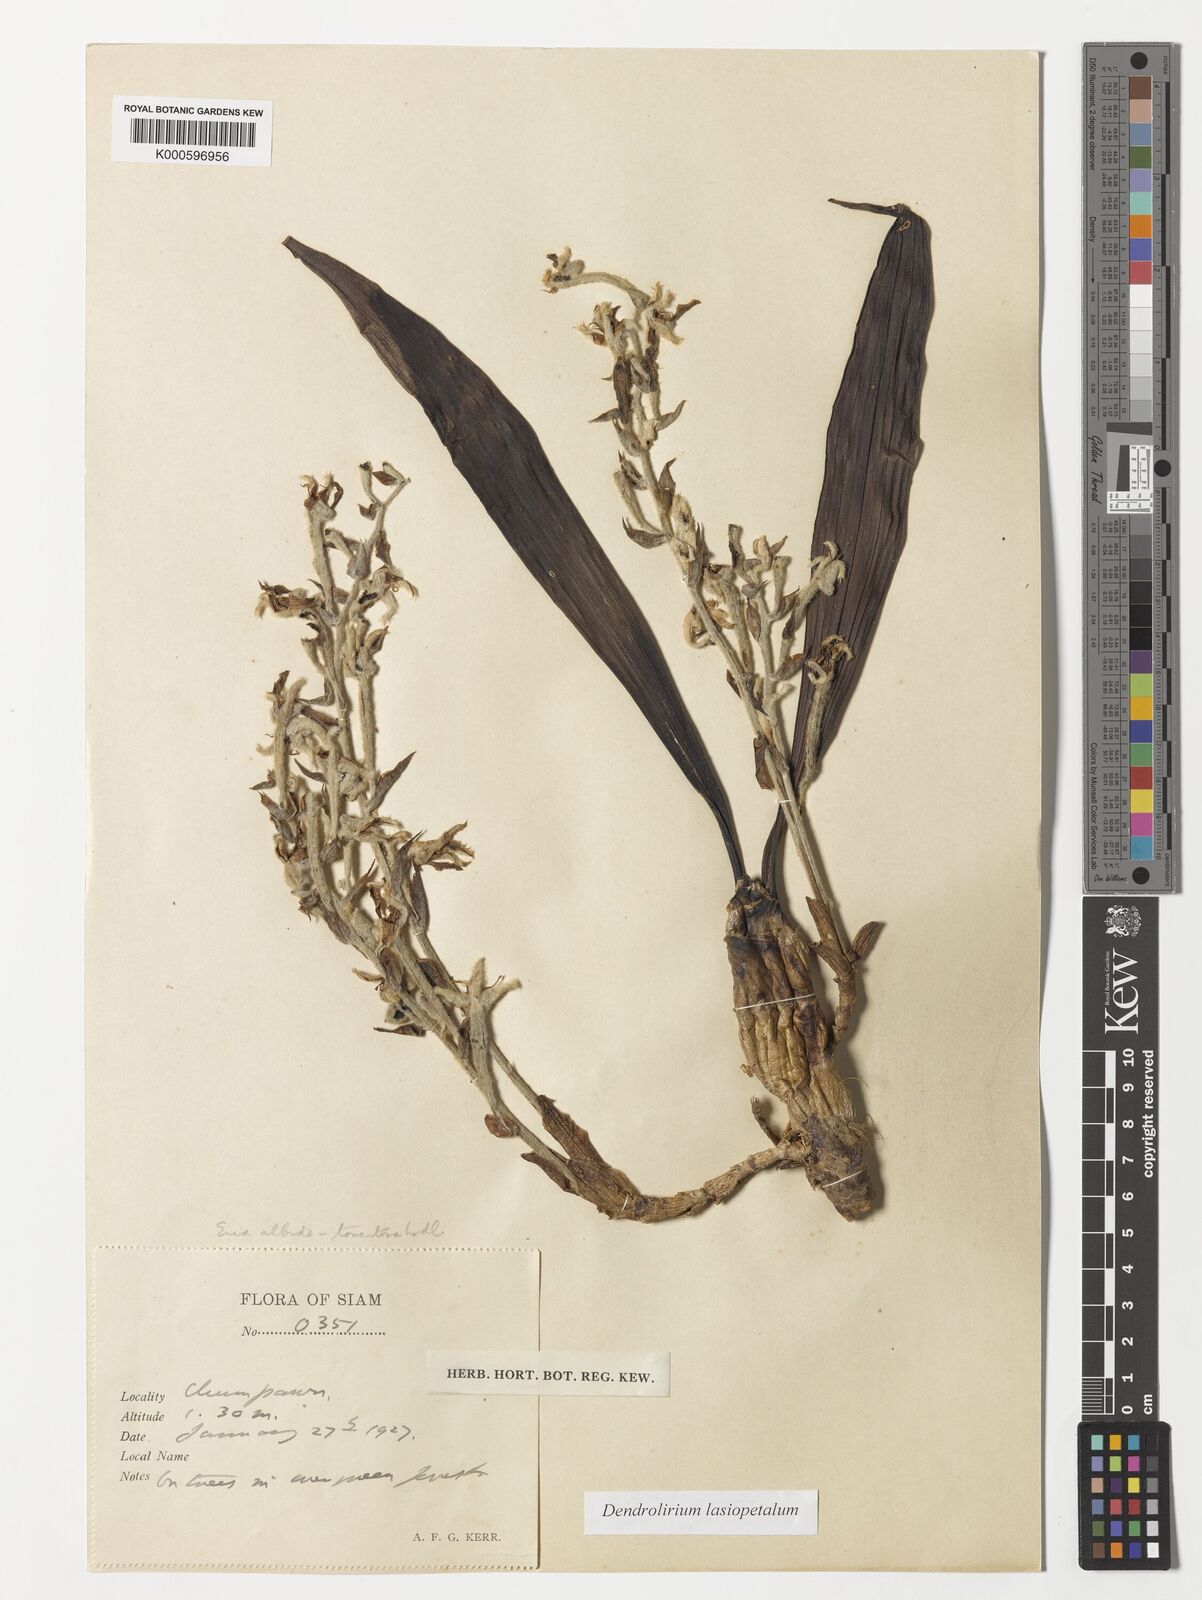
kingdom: Plantae
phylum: Tracheophyta
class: Liliopsida
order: Asparagales
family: Orchidaceae
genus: Dendrolirium
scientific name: Dendrolirium lasiopetalum
